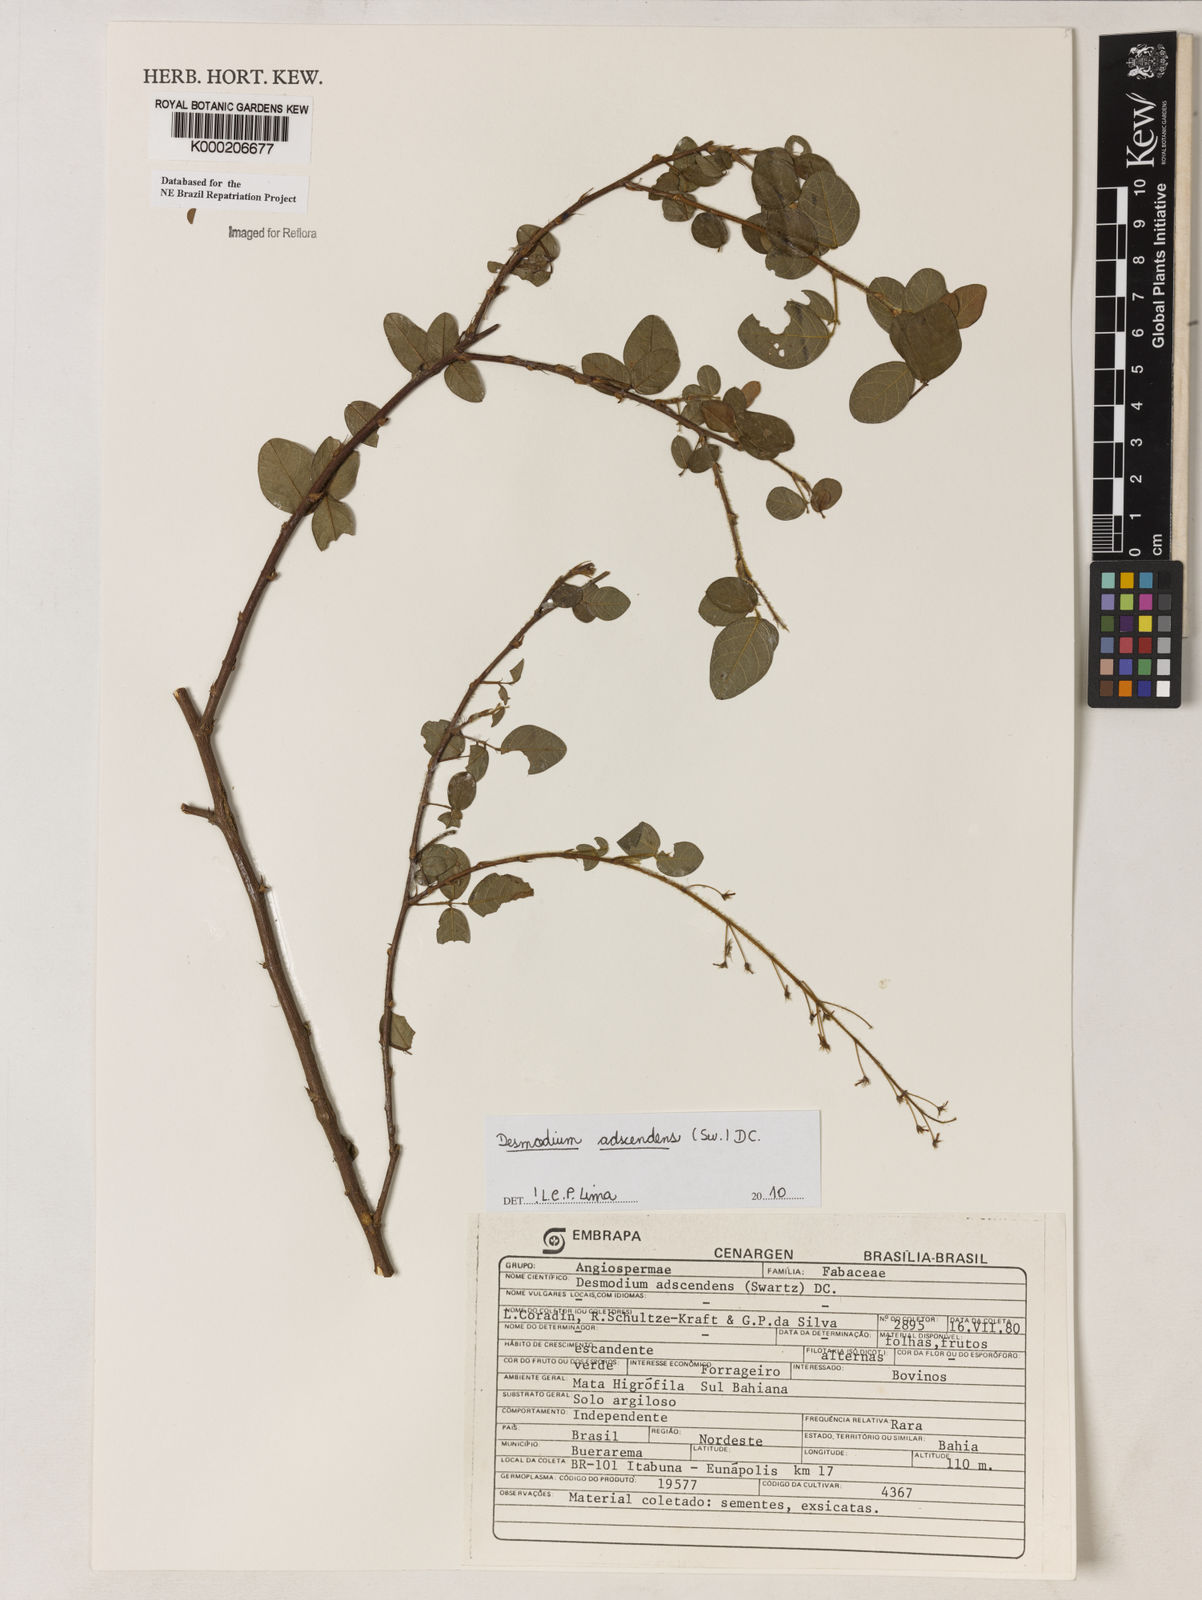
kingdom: Plantae
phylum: Tracheophyta
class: Magnoliopsida
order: Fabales
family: Fabaceae
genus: Grona
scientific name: Grona adscendens
